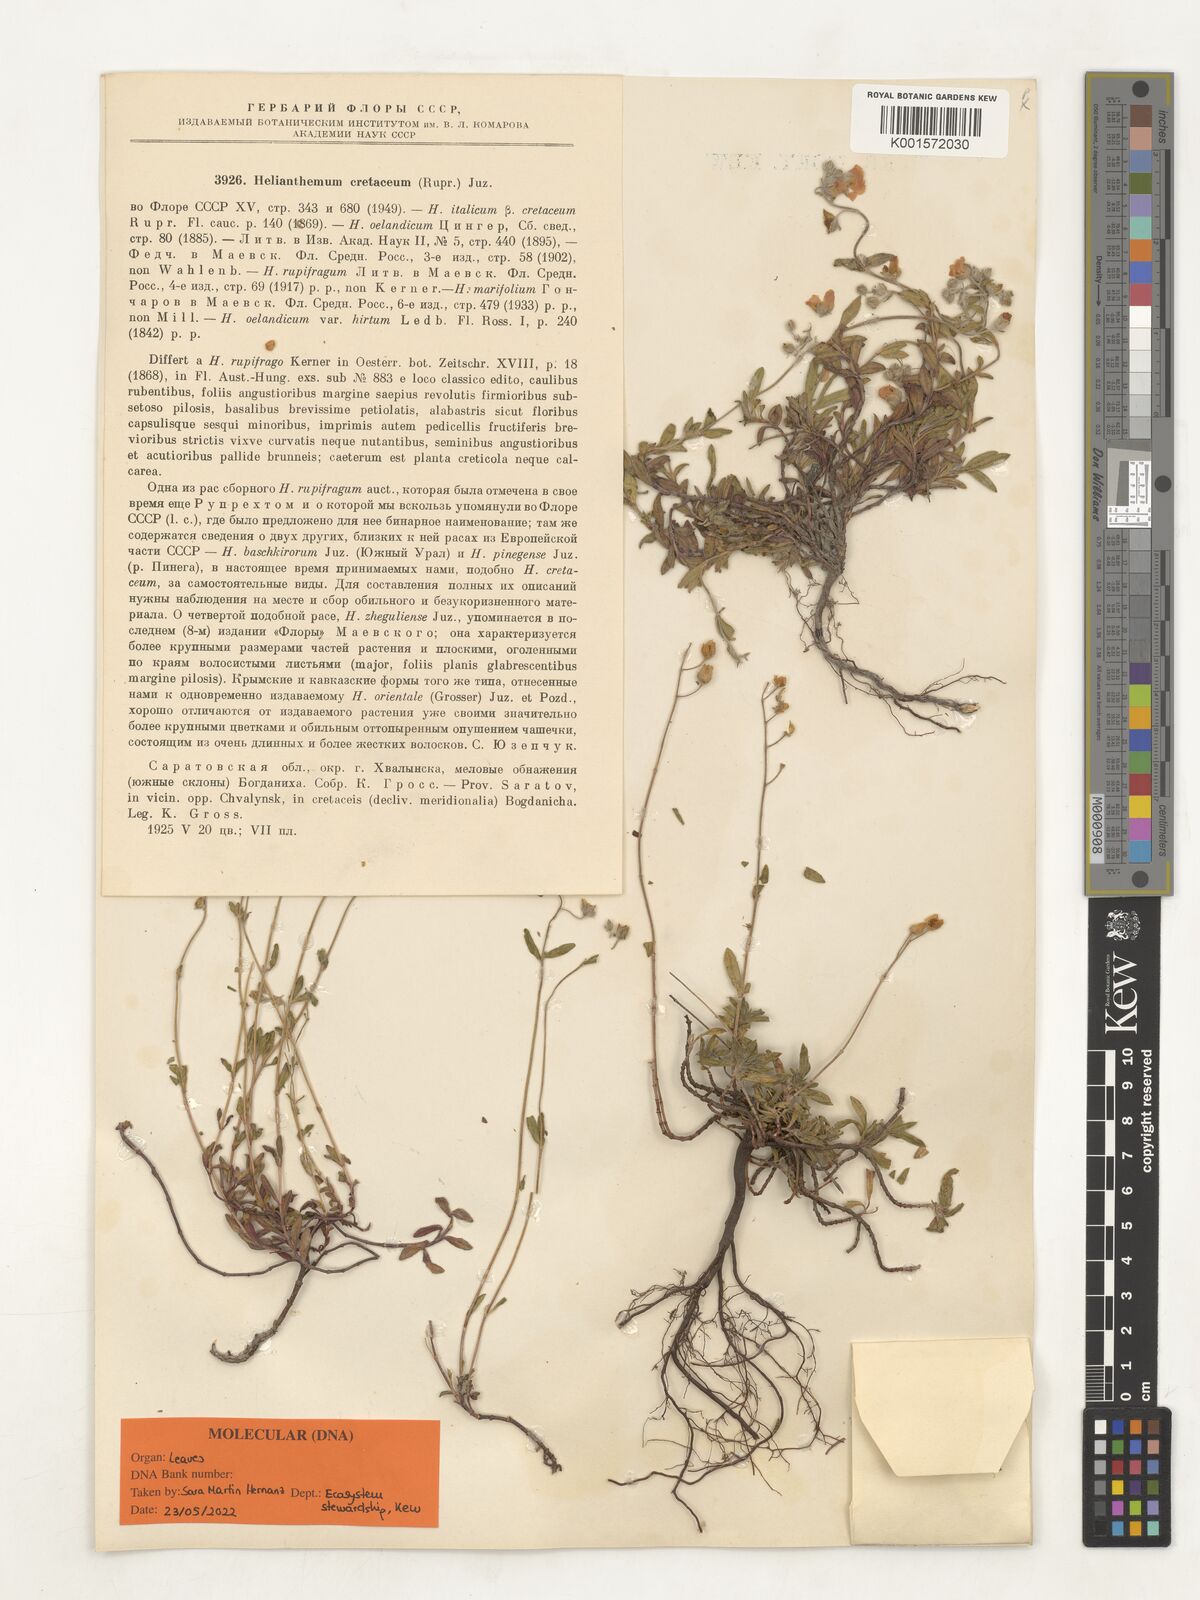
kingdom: Plantae
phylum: Tracheophyta
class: Magnoliopsida
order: Malvales
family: Cistaceae
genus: Helianthemum
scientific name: Helianthemum rupifragum
